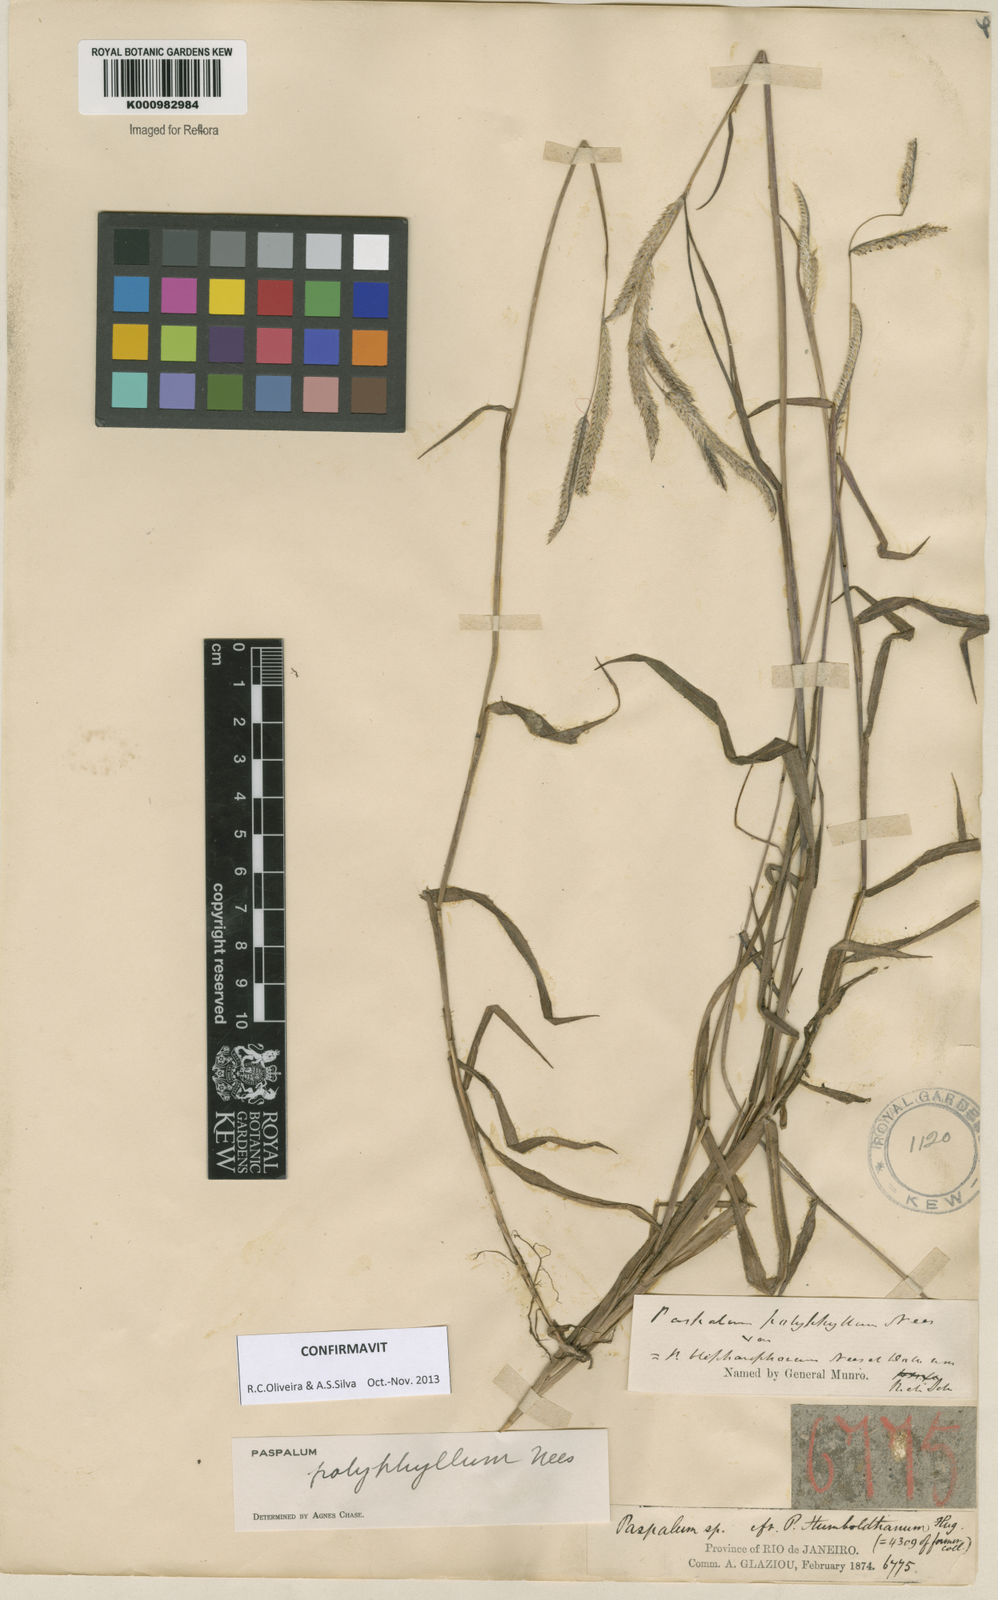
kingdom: Plantae
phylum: Tracheophyta
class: Liliopsida
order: Poales
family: Poaceae
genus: Paspalum
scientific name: Paspalum
